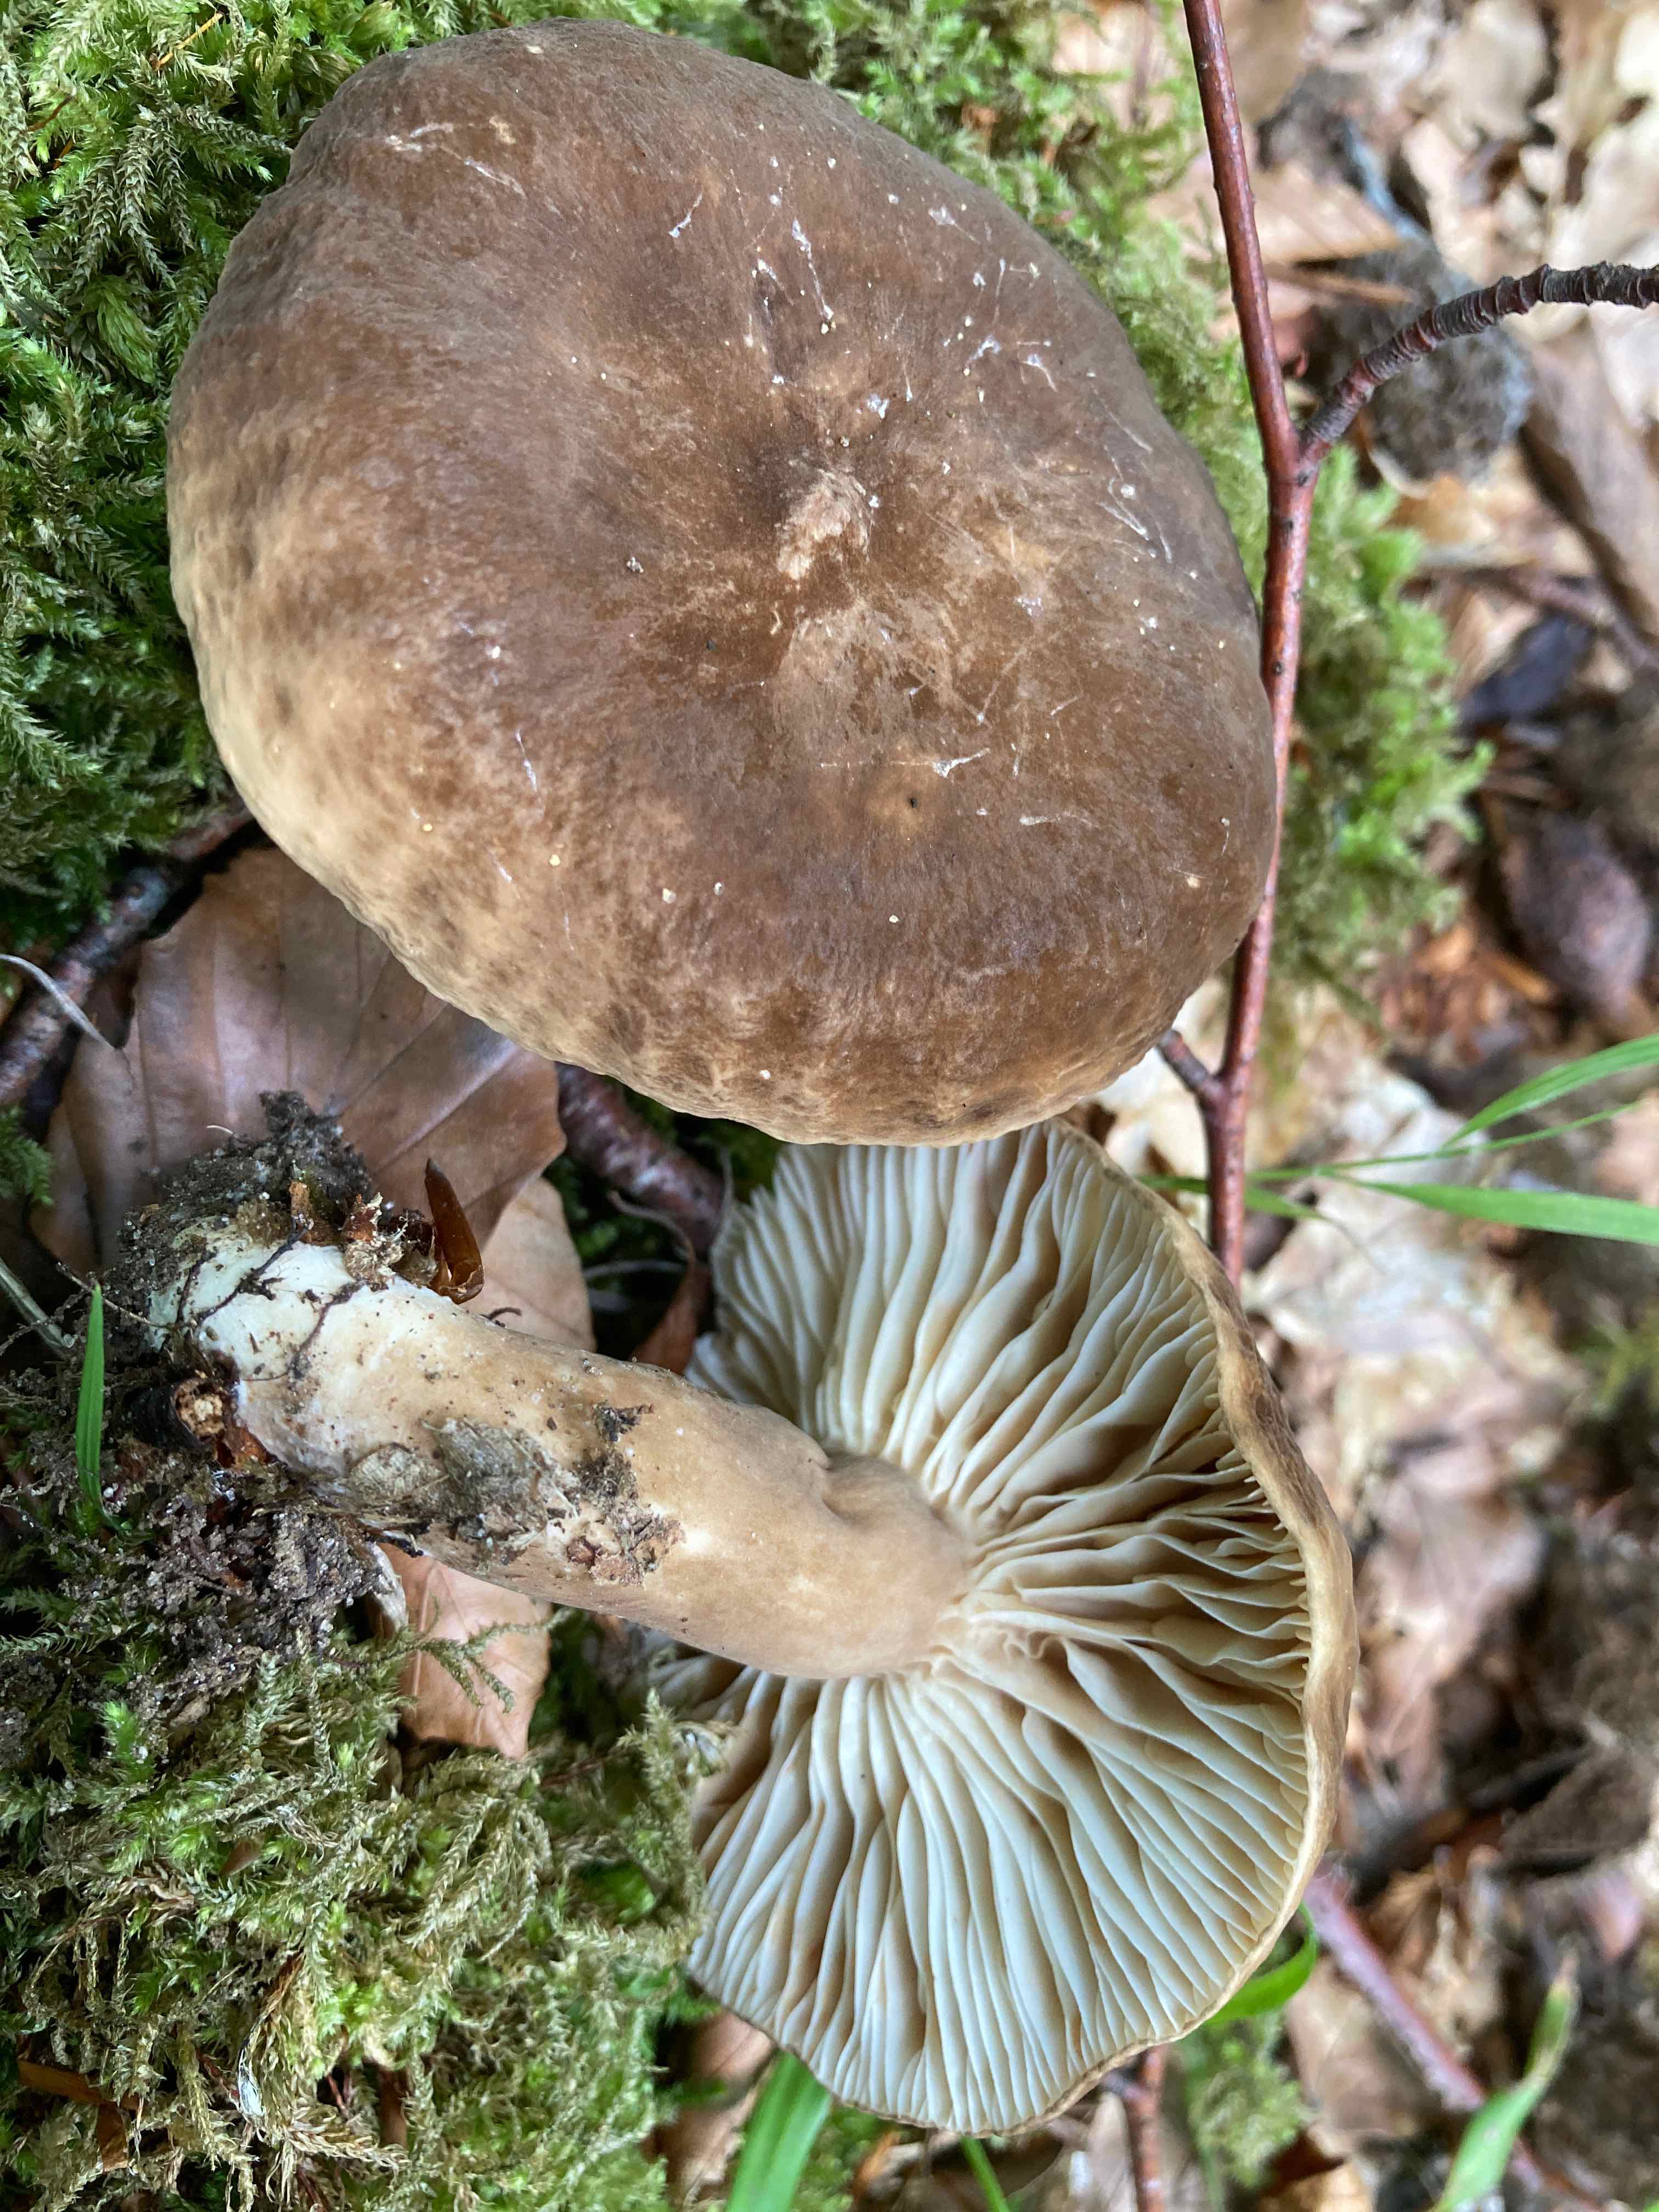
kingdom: Fungi
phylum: Basidiomycota
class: Agaricomycetes
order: Russulales
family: Russulaceae
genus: Lactarius
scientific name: Lactarius romagnesii
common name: fjernbladet mælkehat
